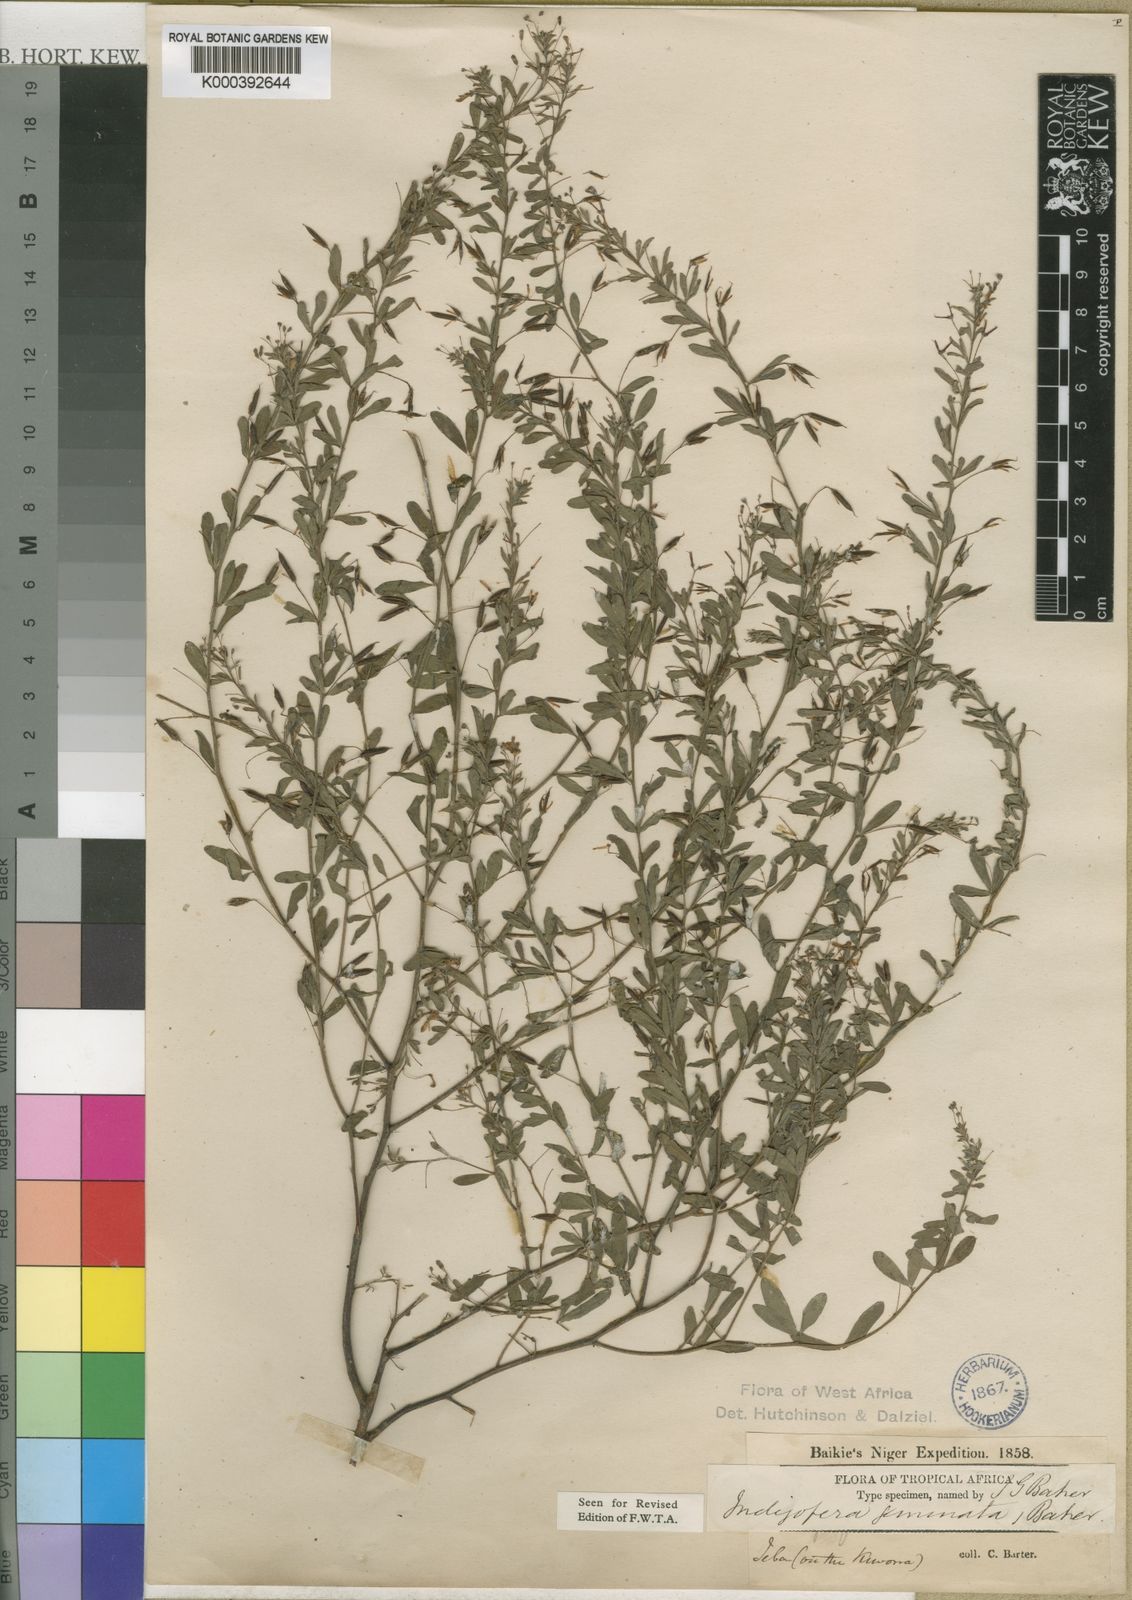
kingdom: Plantae
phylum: Tracheophyta
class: Magnoliopsida
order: Fabales
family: Fabaceae
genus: Indigofera
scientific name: Indigofera geminata
